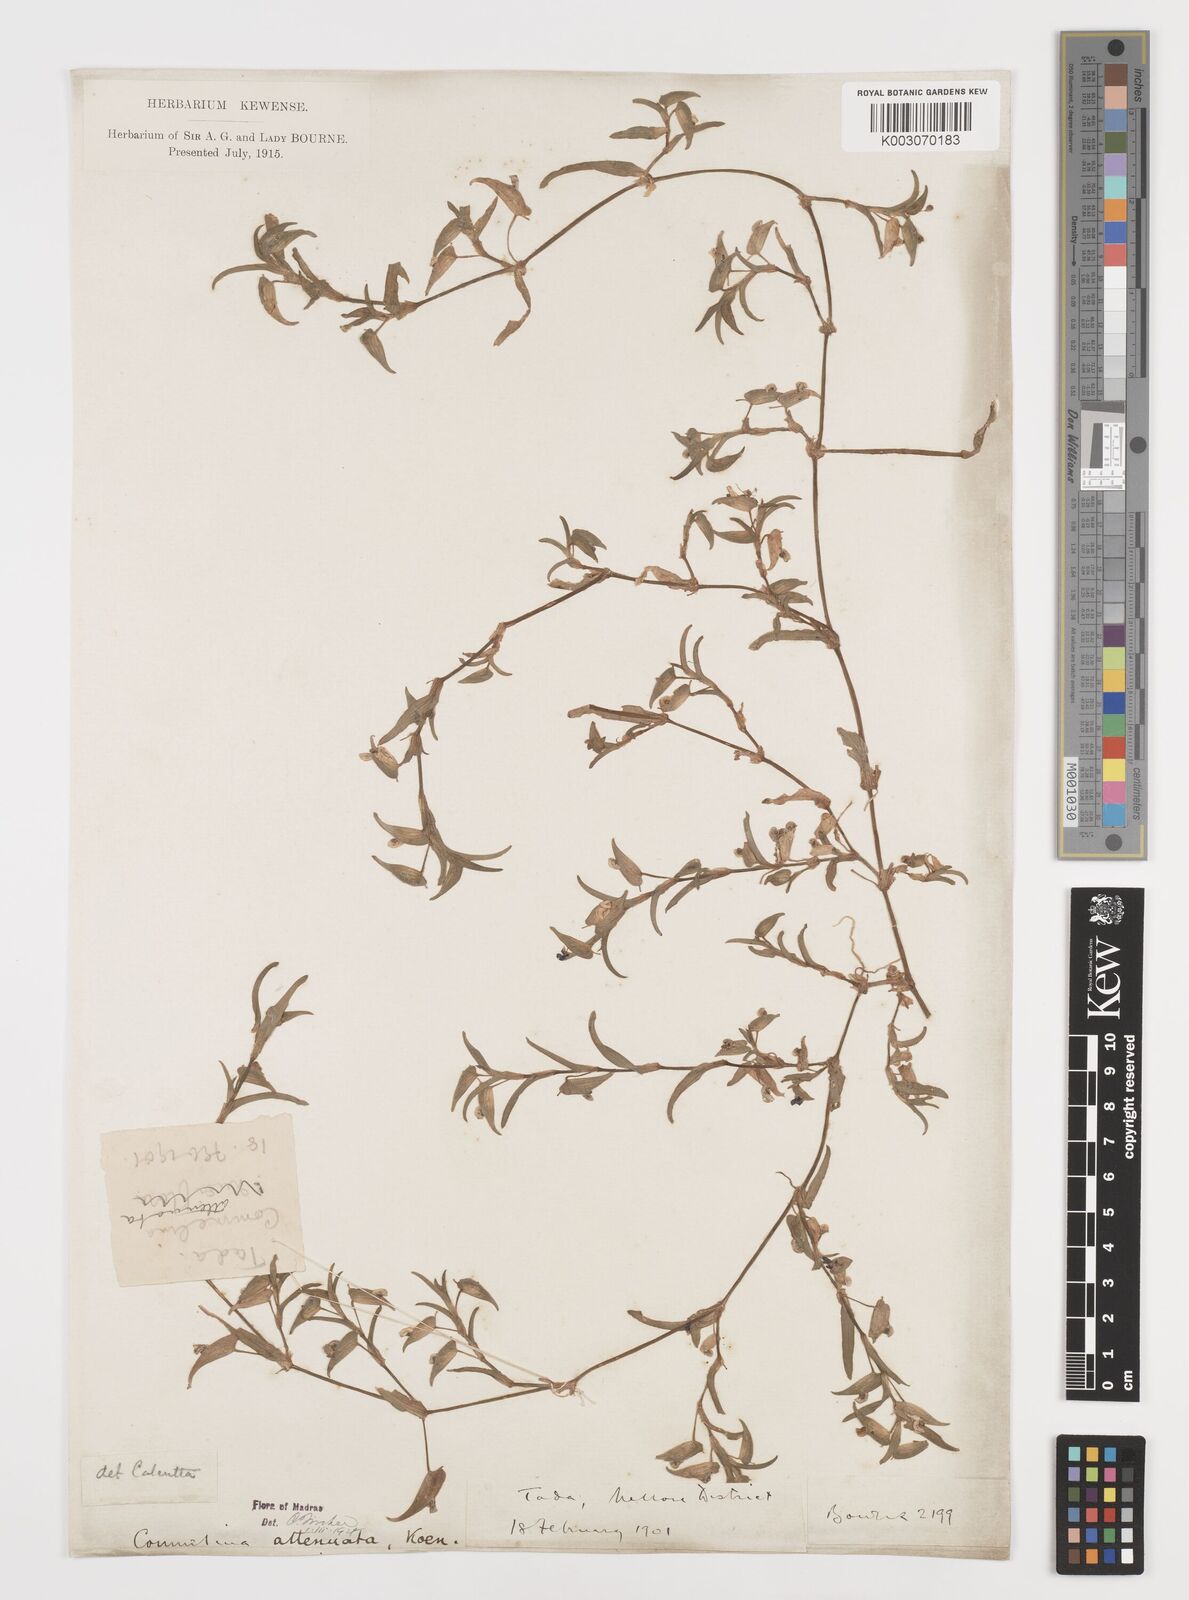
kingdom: Plantae
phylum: Tracheophyta
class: Liliopsida
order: Commelinales
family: Commelinaceae
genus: Commelina
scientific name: Commelina attenuata
